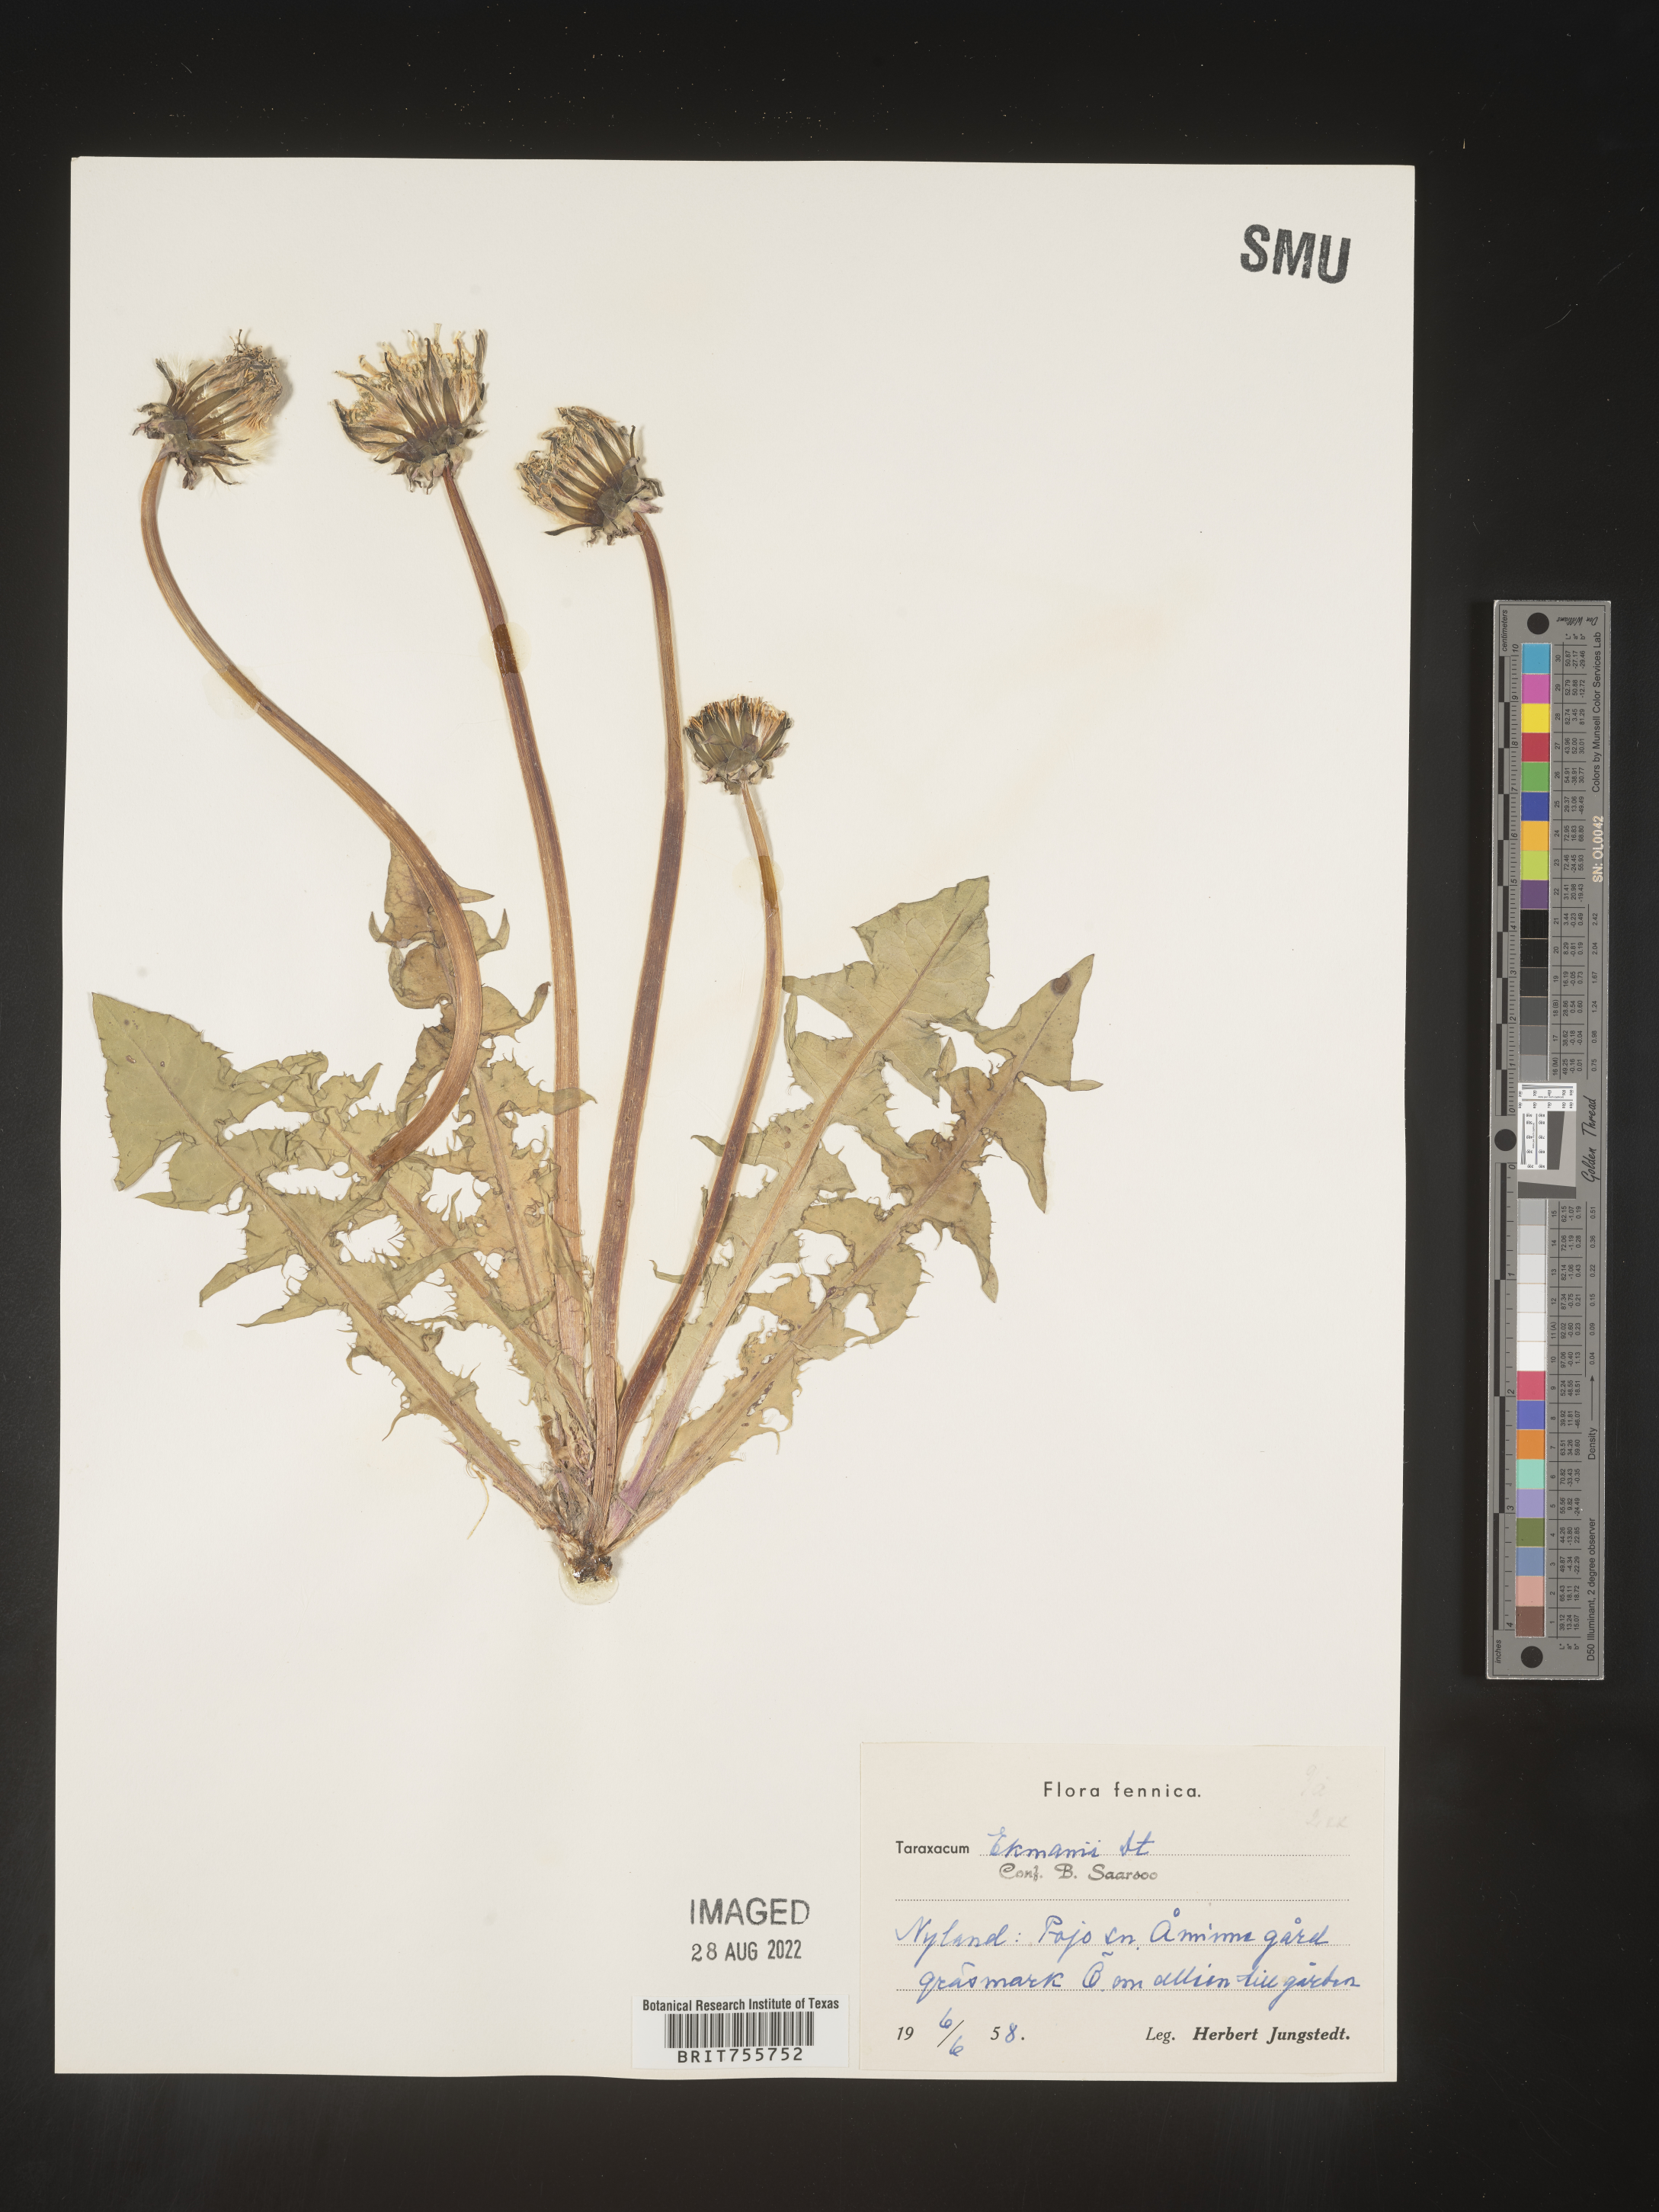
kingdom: Plantae
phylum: Tracheophyta
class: Magnoliopsida
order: Asterales
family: Asteraceae
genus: Taraxacum
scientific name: Taraxacum
